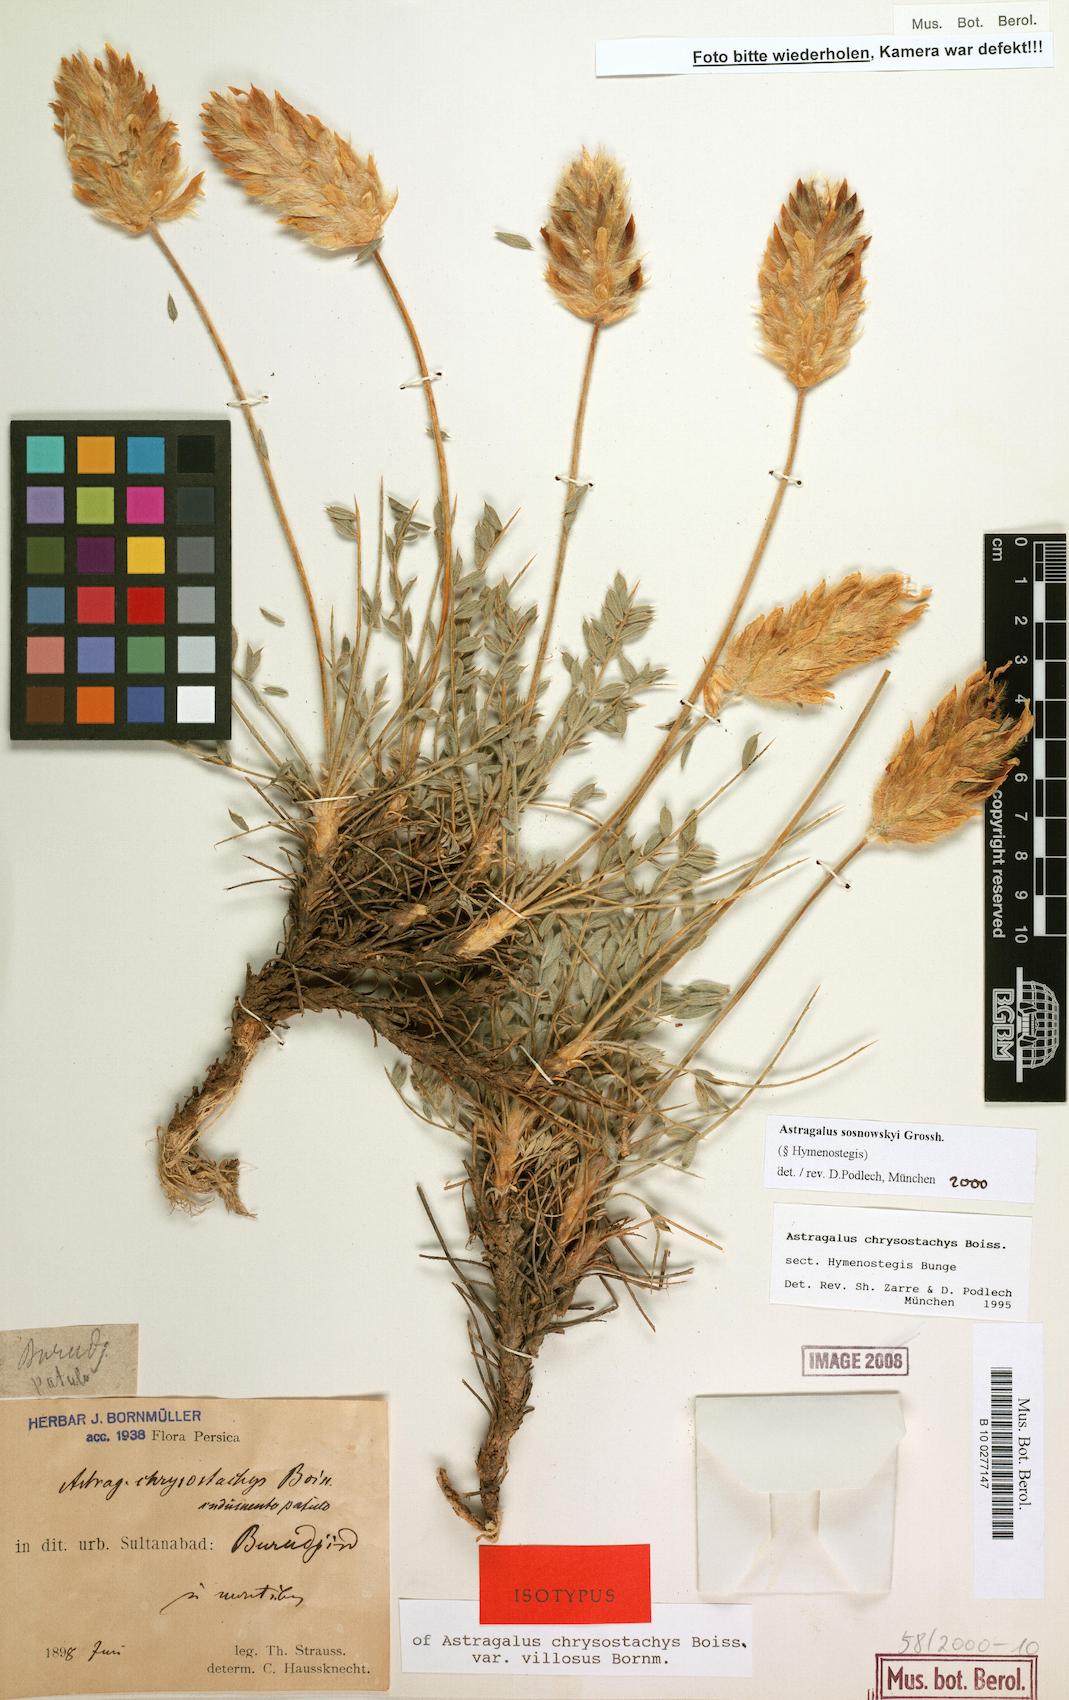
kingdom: Plantae
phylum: Tracheophyta
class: Magnoliopsida
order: Fabales
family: Fabaceae
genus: Astragalus
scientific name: Astragalus sosnowskyi
